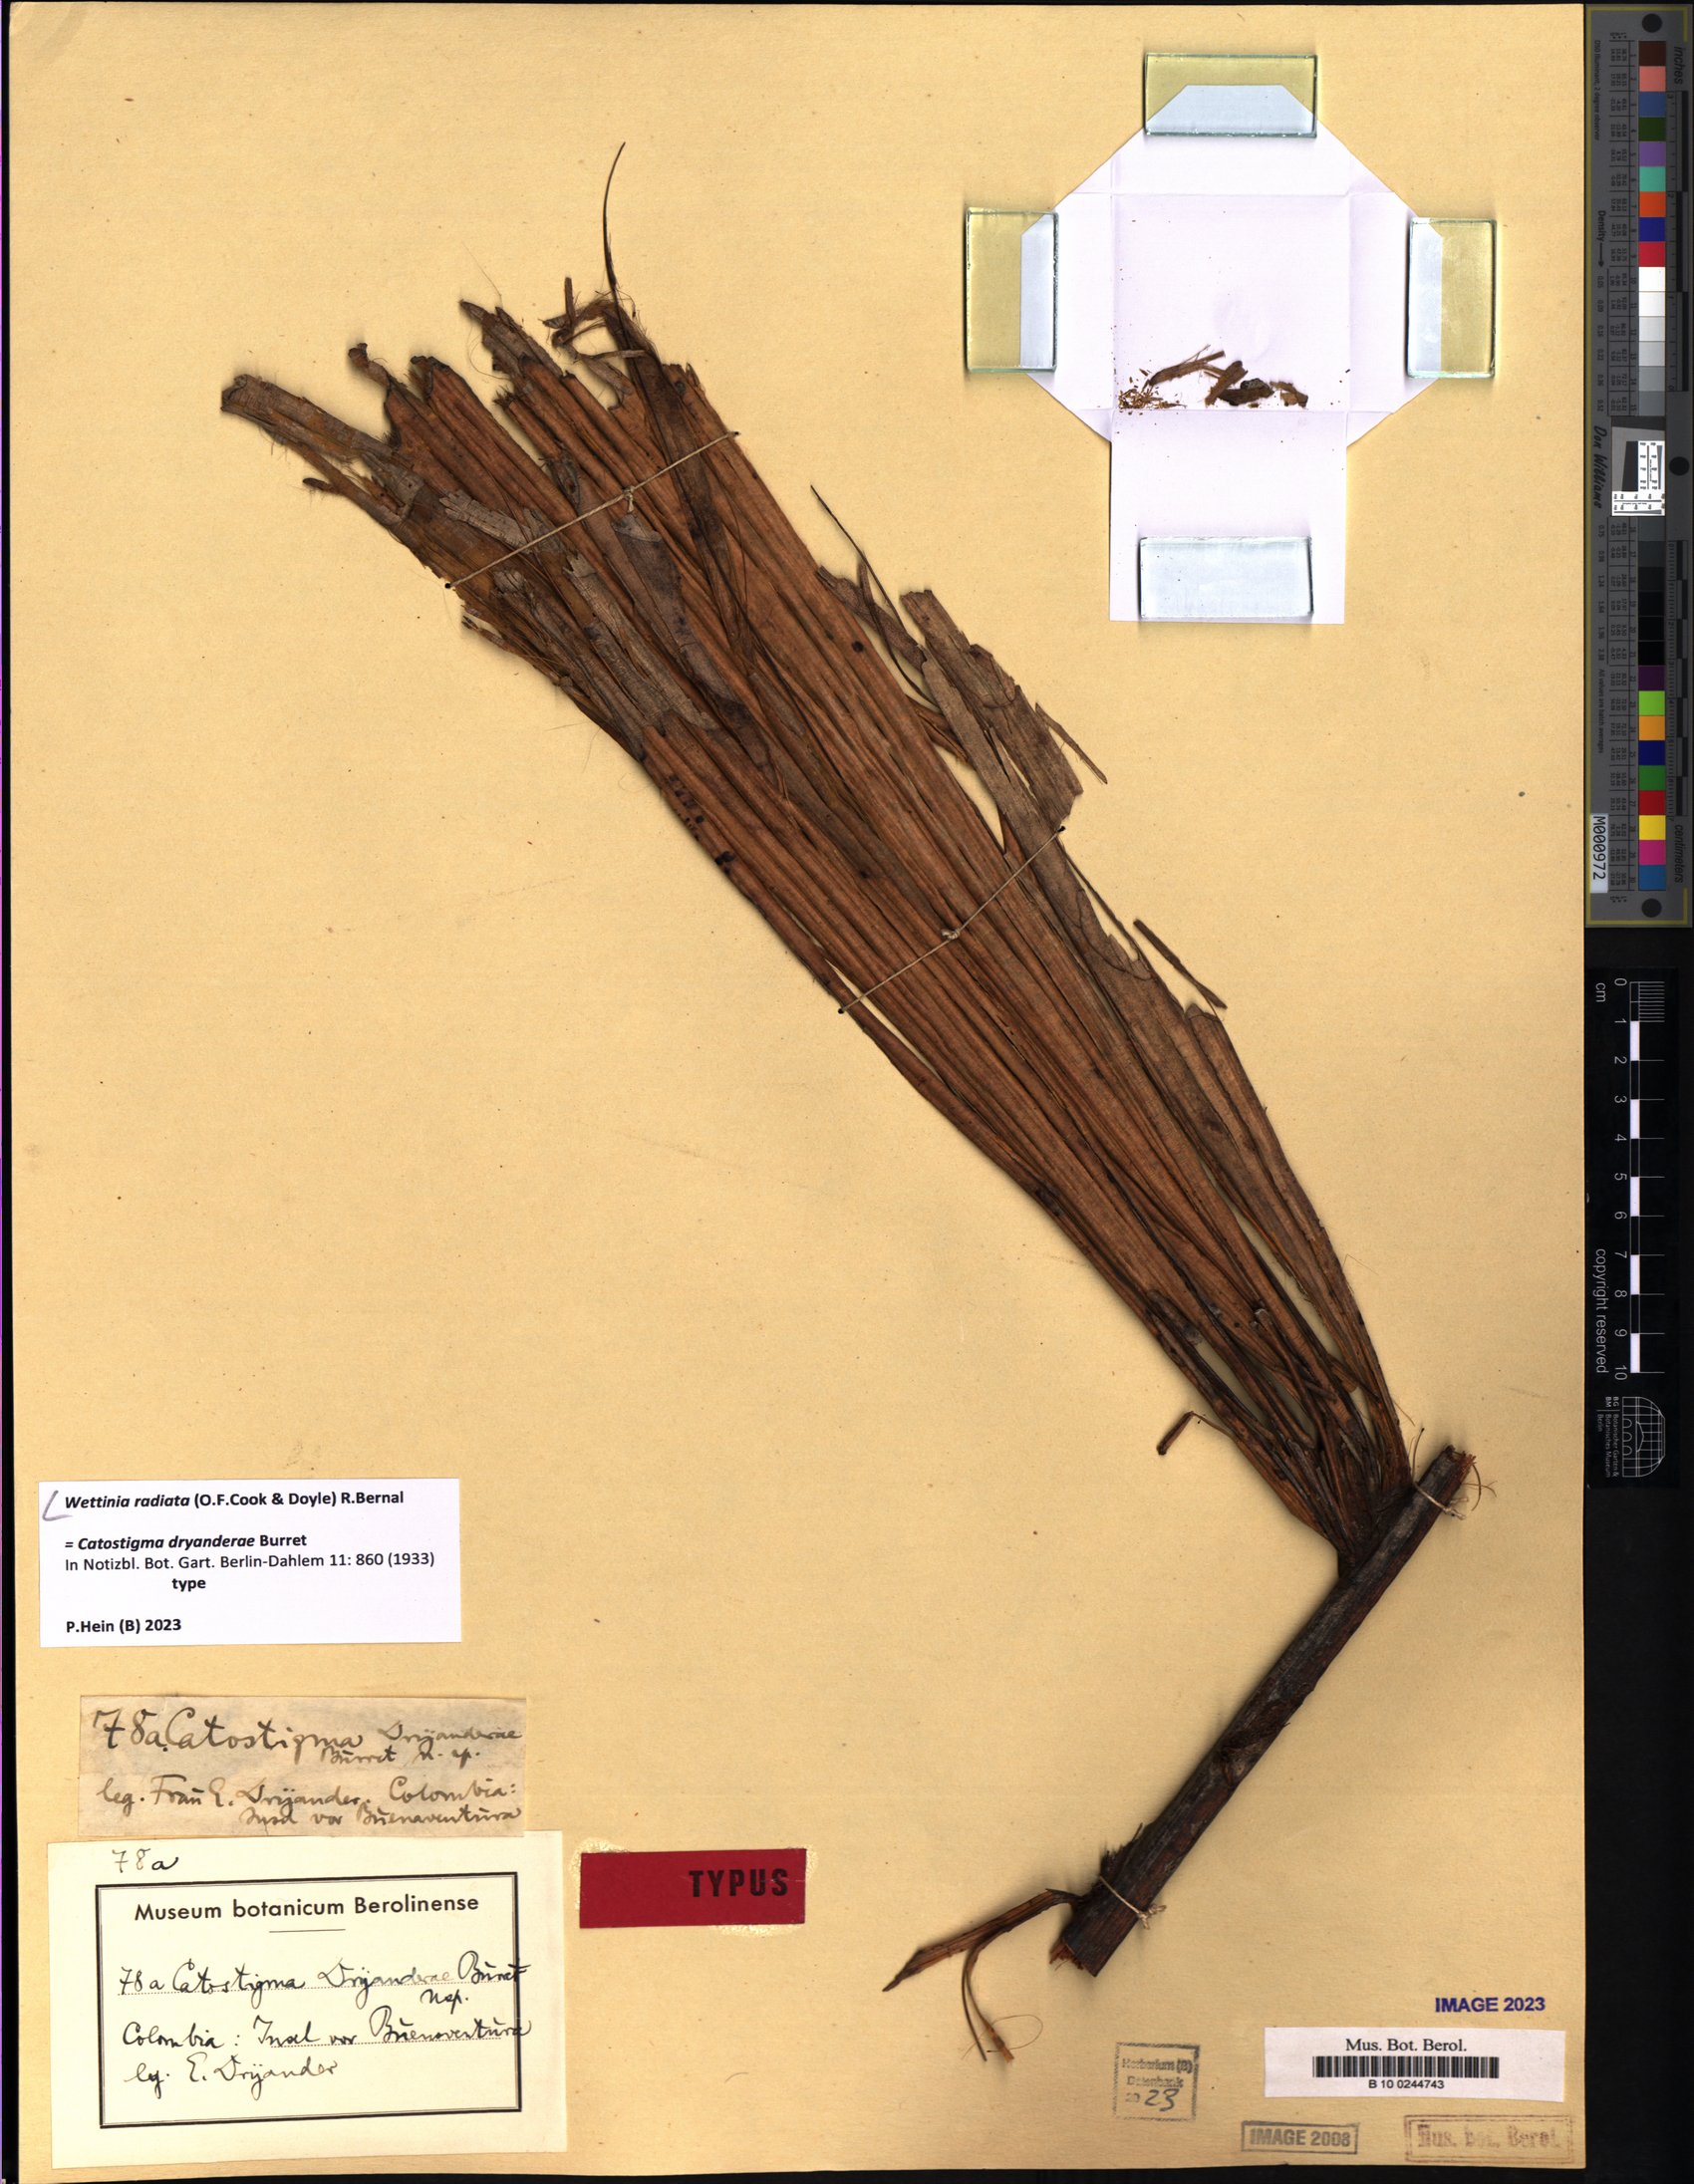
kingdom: Plantae
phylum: Tracheophyta
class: Liliopsida
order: Arecales
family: Arecaceae
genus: Wettinia
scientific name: Wettinia radiata
